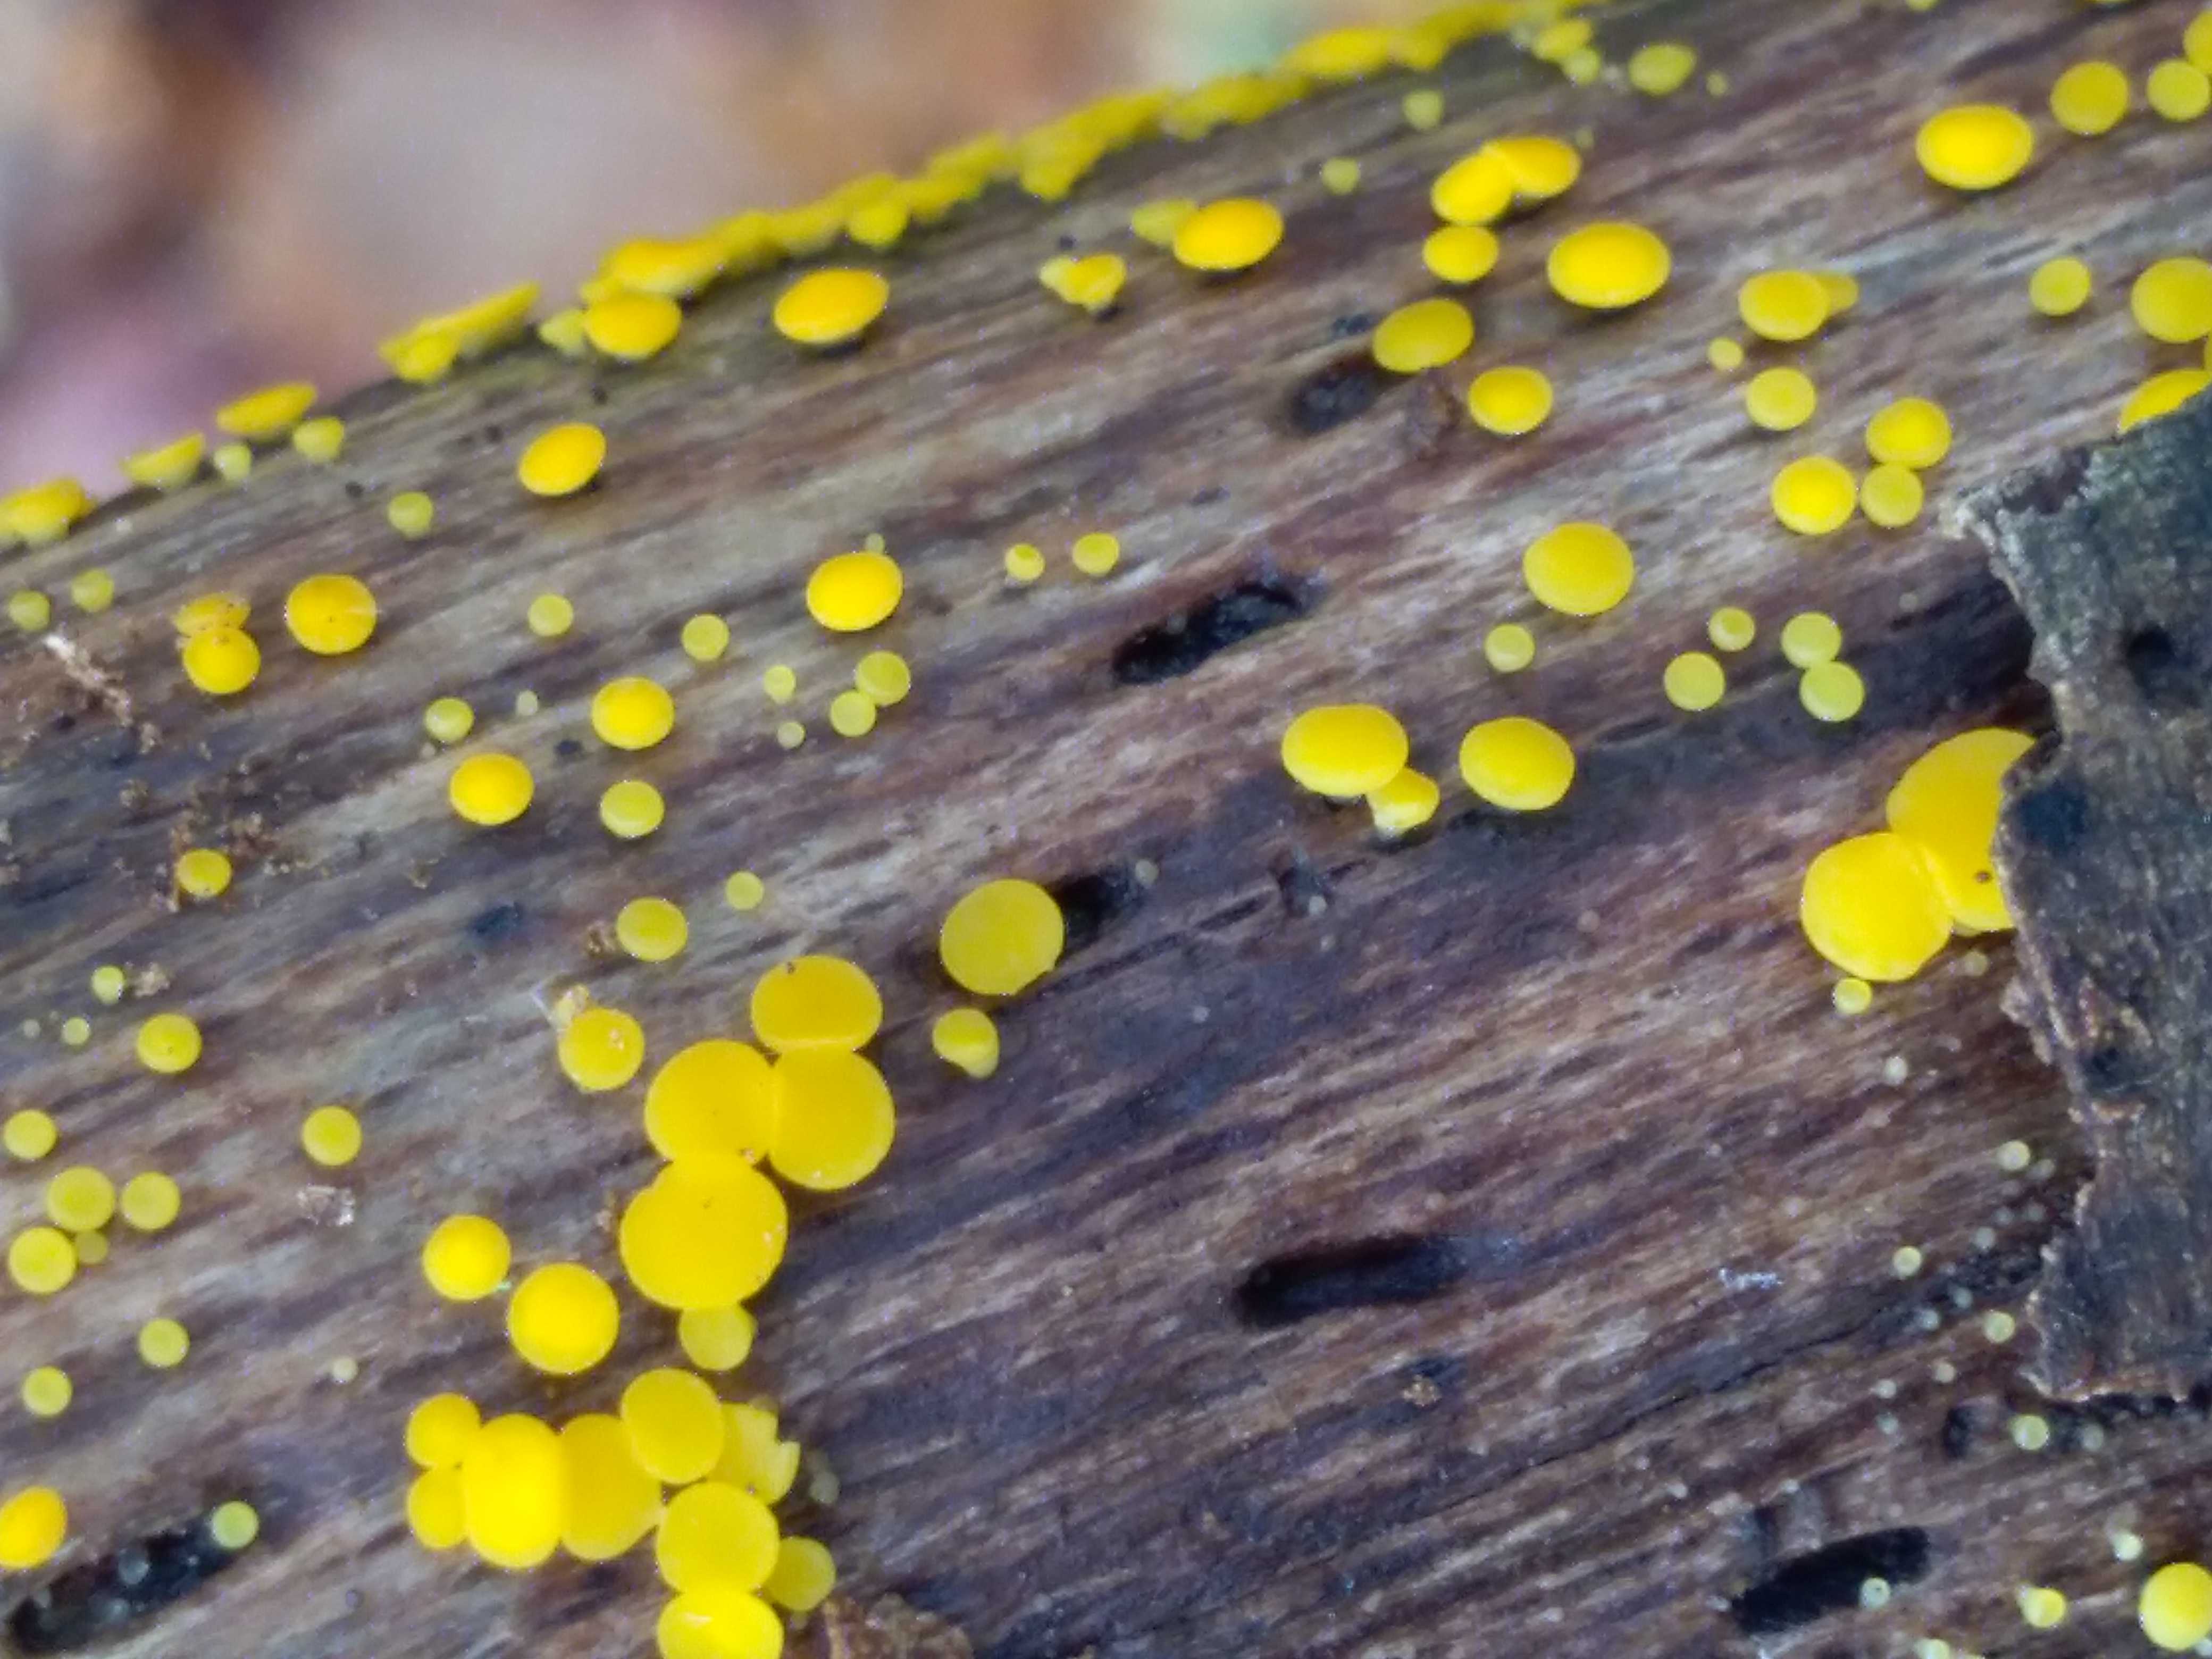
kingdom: Fungi
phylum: Ascomycota
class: Leotiomycetes
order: Helotiales
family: Pezizellaceae
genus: Calycina
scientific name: Calycina citrina
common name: almindelig gulskive
